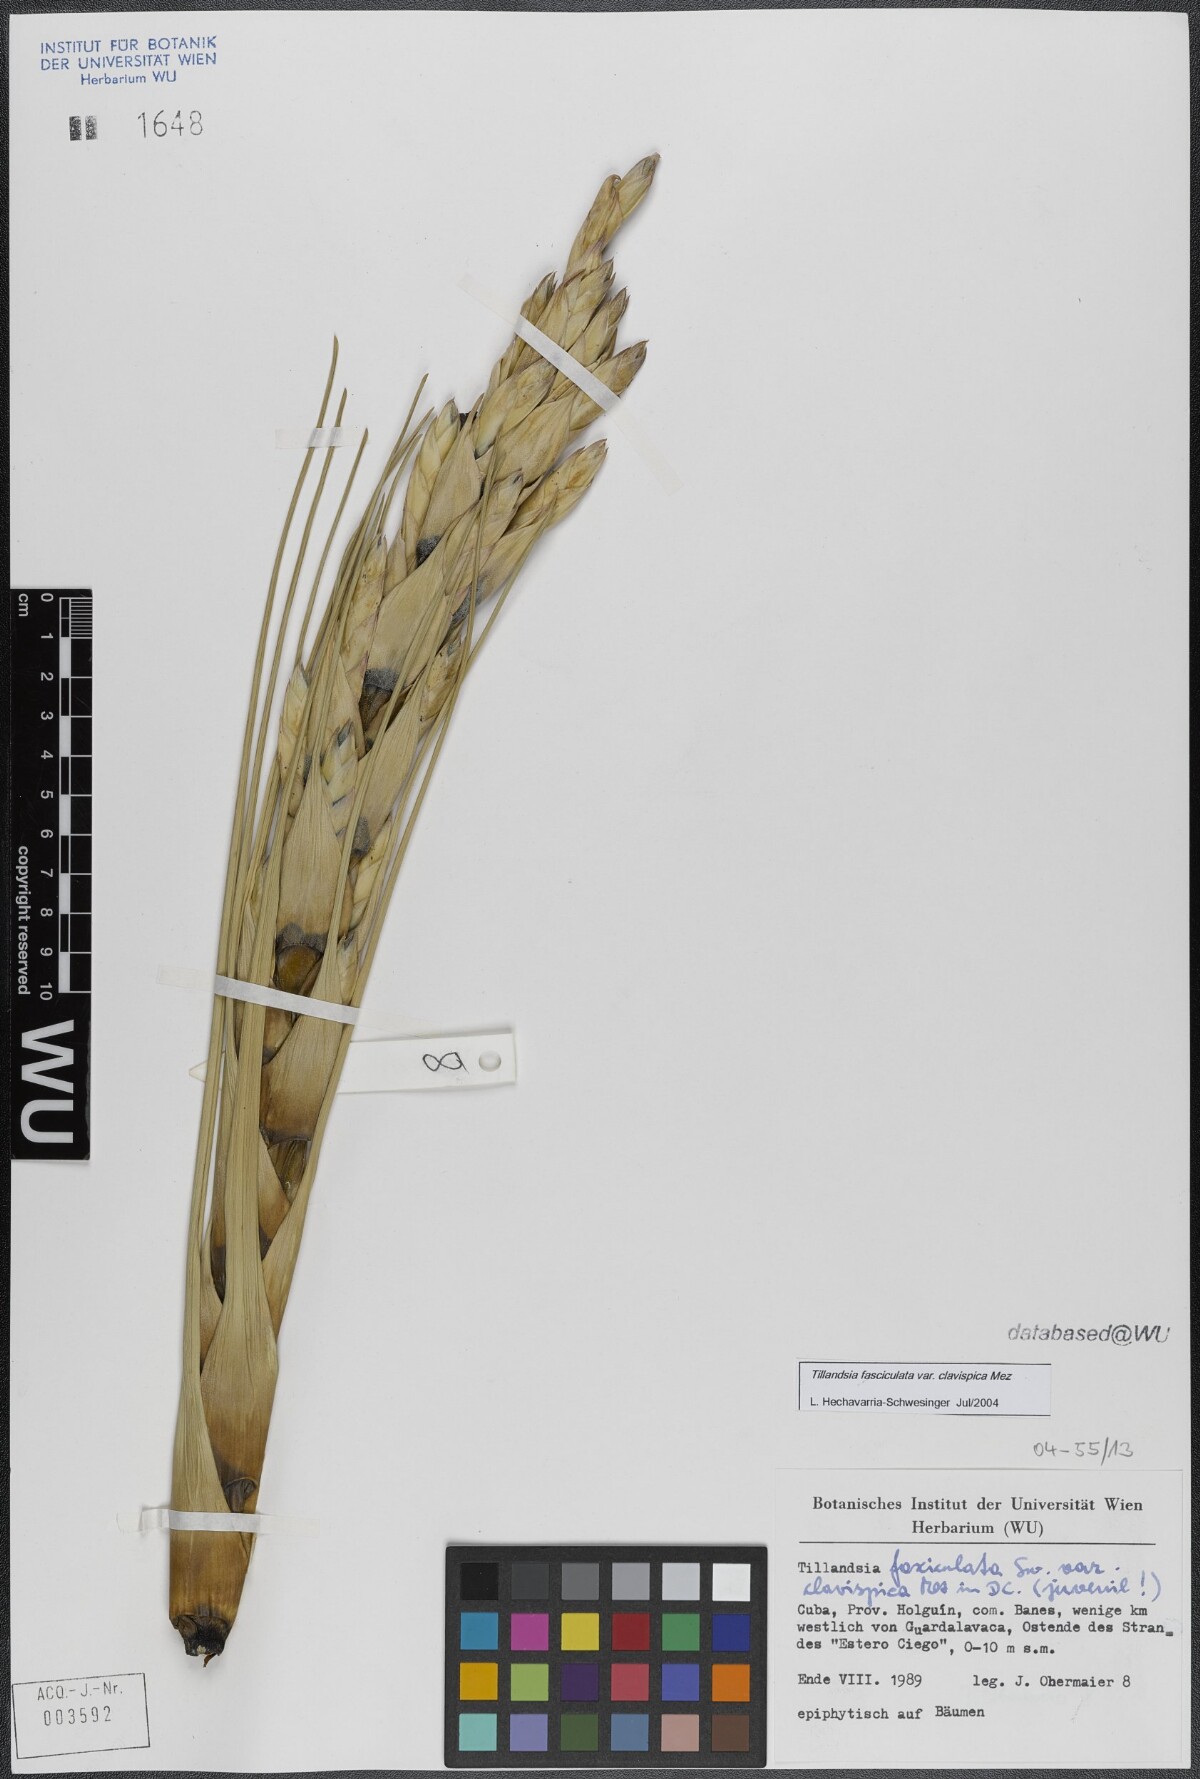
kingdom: Plantae
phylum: Tracheophyta
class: Liliopsida
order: Poales
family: Bromeliaceae
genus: Tillandsia
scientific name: Tillandsia fasciculata
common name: Giant airplant
